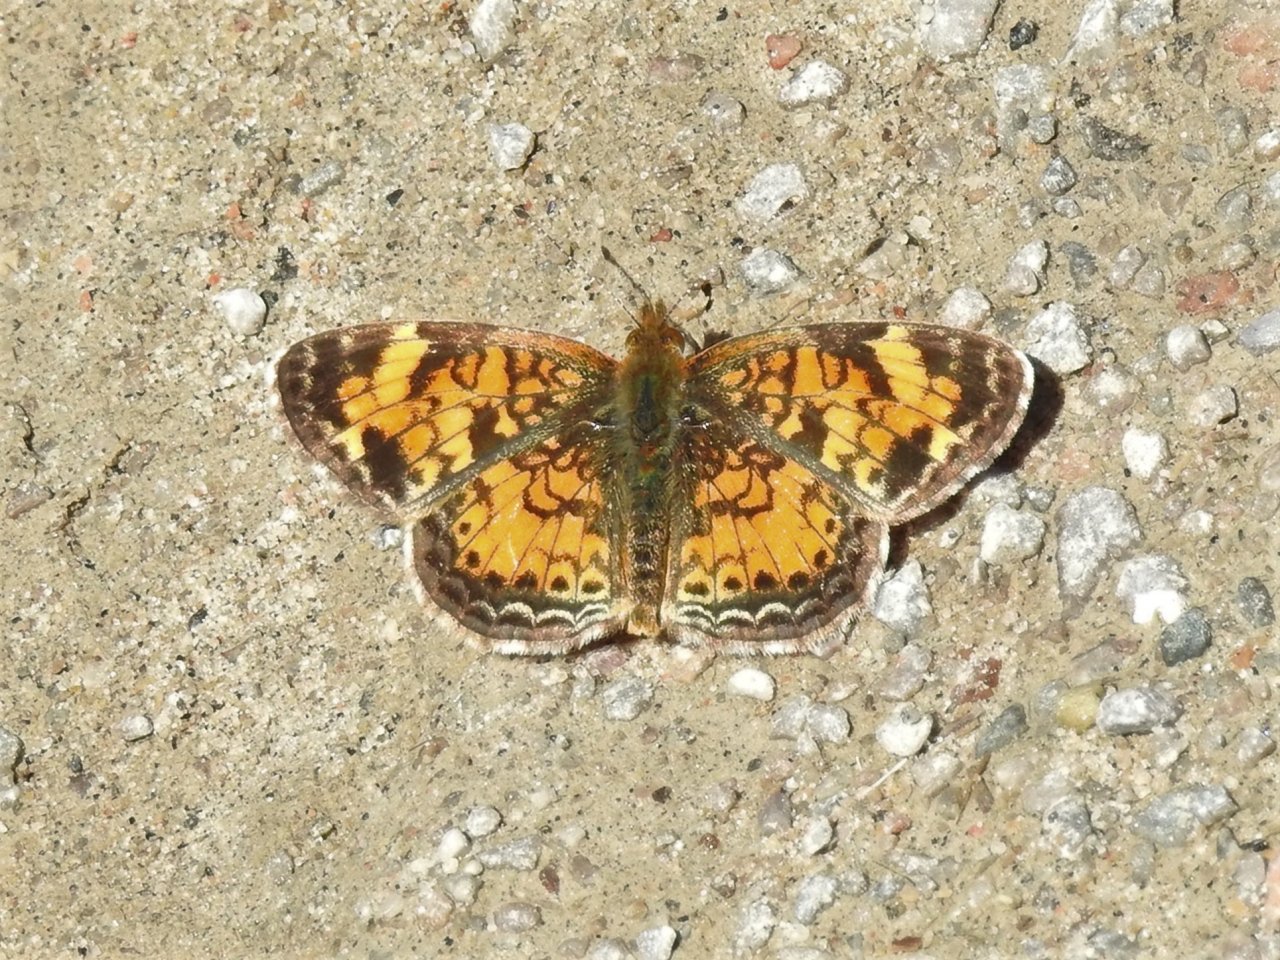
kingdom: Animalia
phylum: Arthropoda
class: Insecta
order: Lepidoptera
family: Nymphalidae
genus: Phyciodes
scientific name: Phyciodes tharos
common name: Pearl Crescent
